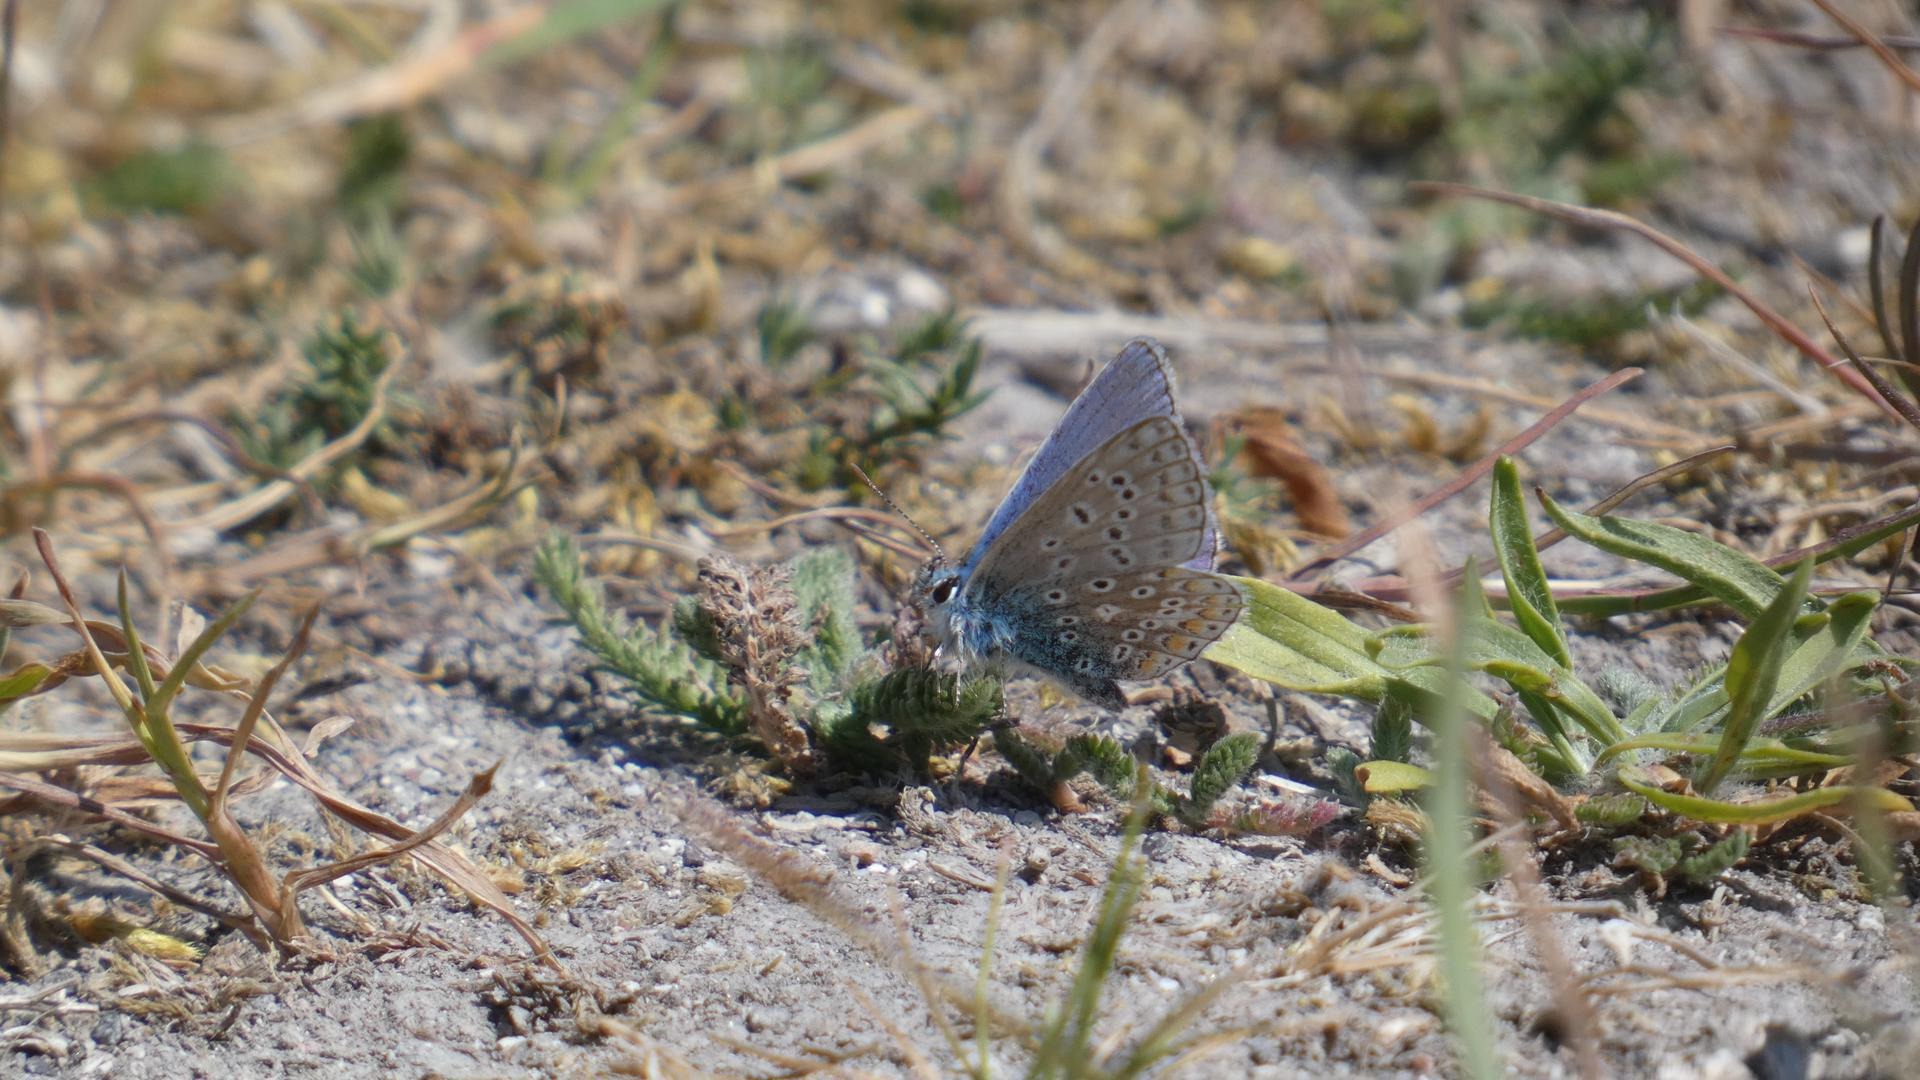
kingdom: Animalia
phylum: Arthropoda
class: Insecta
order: Lepidoptera
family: Lycaenidae
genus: Polyommatus
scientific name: Polyommatus icarus
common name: Almindelig blåfugl
